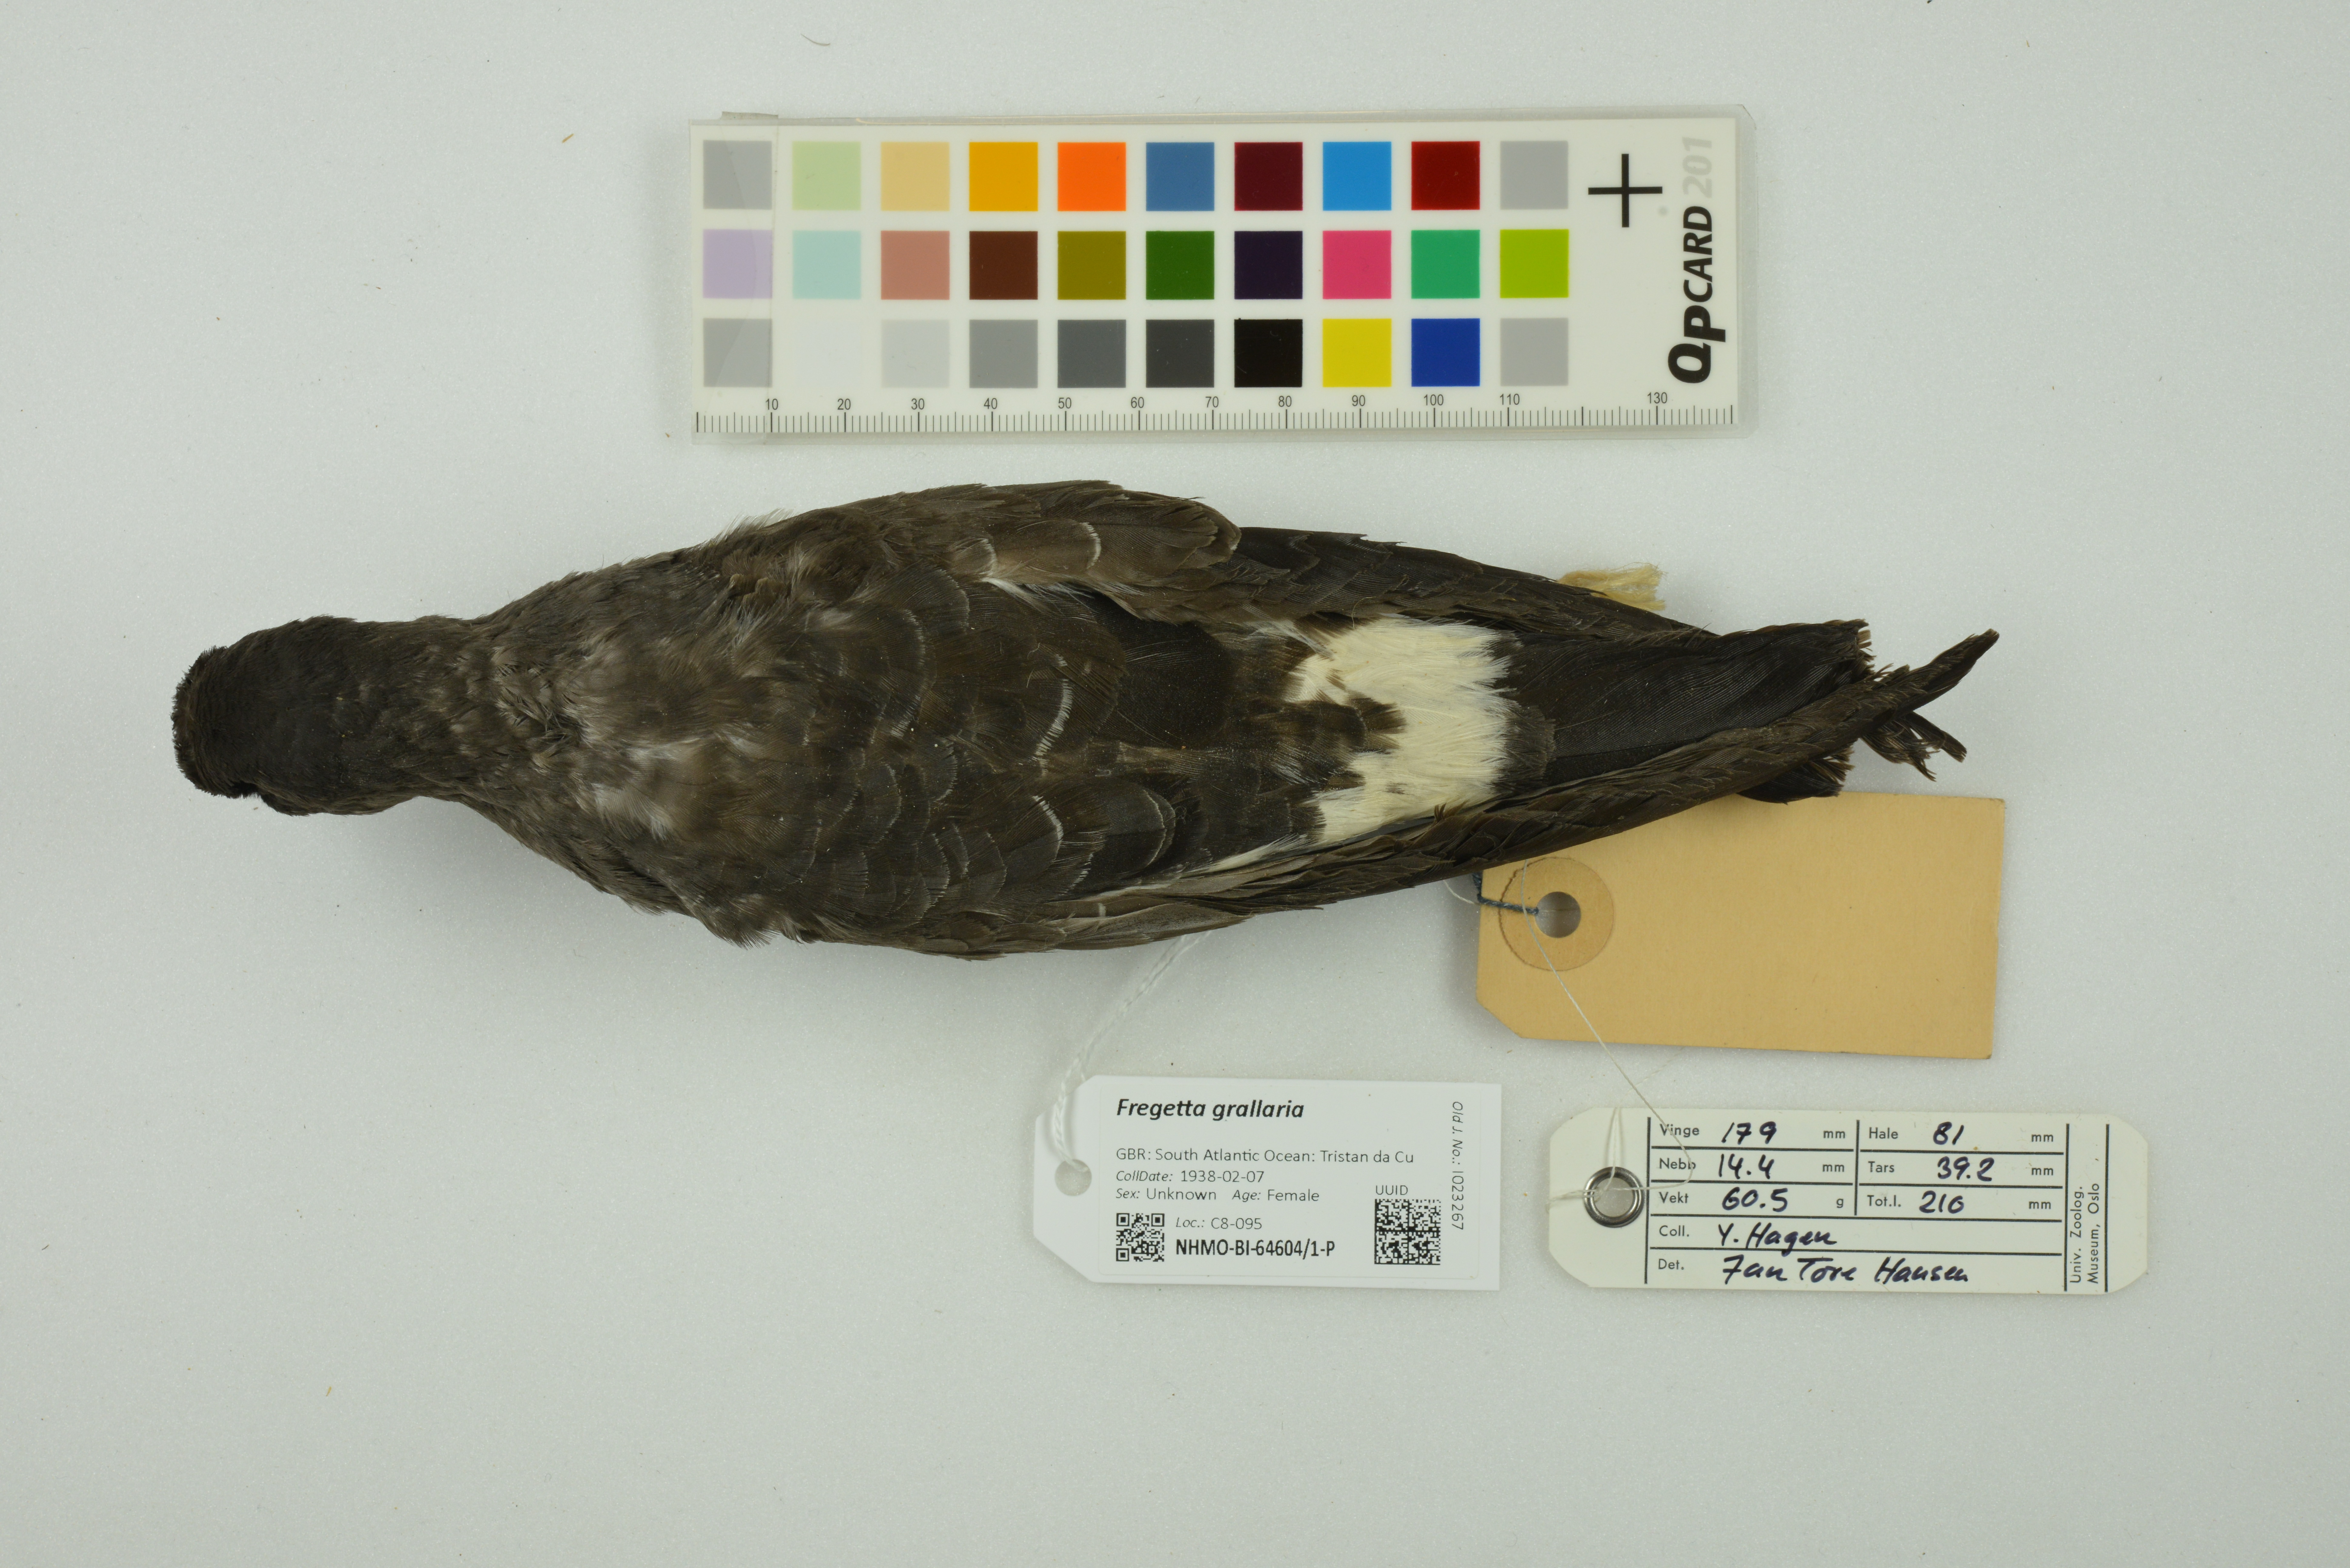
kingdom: Animalia
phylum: Chordata
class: Aves
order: Procellariiformes
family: Hydrobatidae
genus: Fregetta
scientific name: Fregetta grallaria
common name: White-bellied storm-petrel
